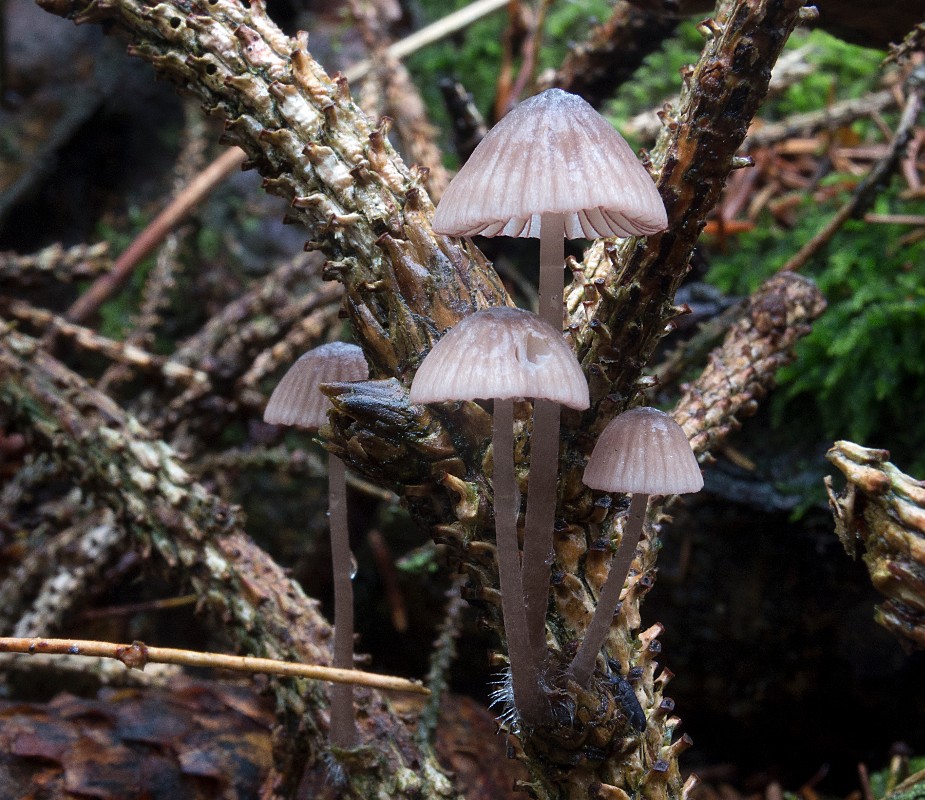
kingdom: Fungi
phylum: Basidiomycota
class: Agaricomycetes
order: Agaricales
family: Mycenaceae
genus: Mycena
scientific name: Mycena rubromarginata
